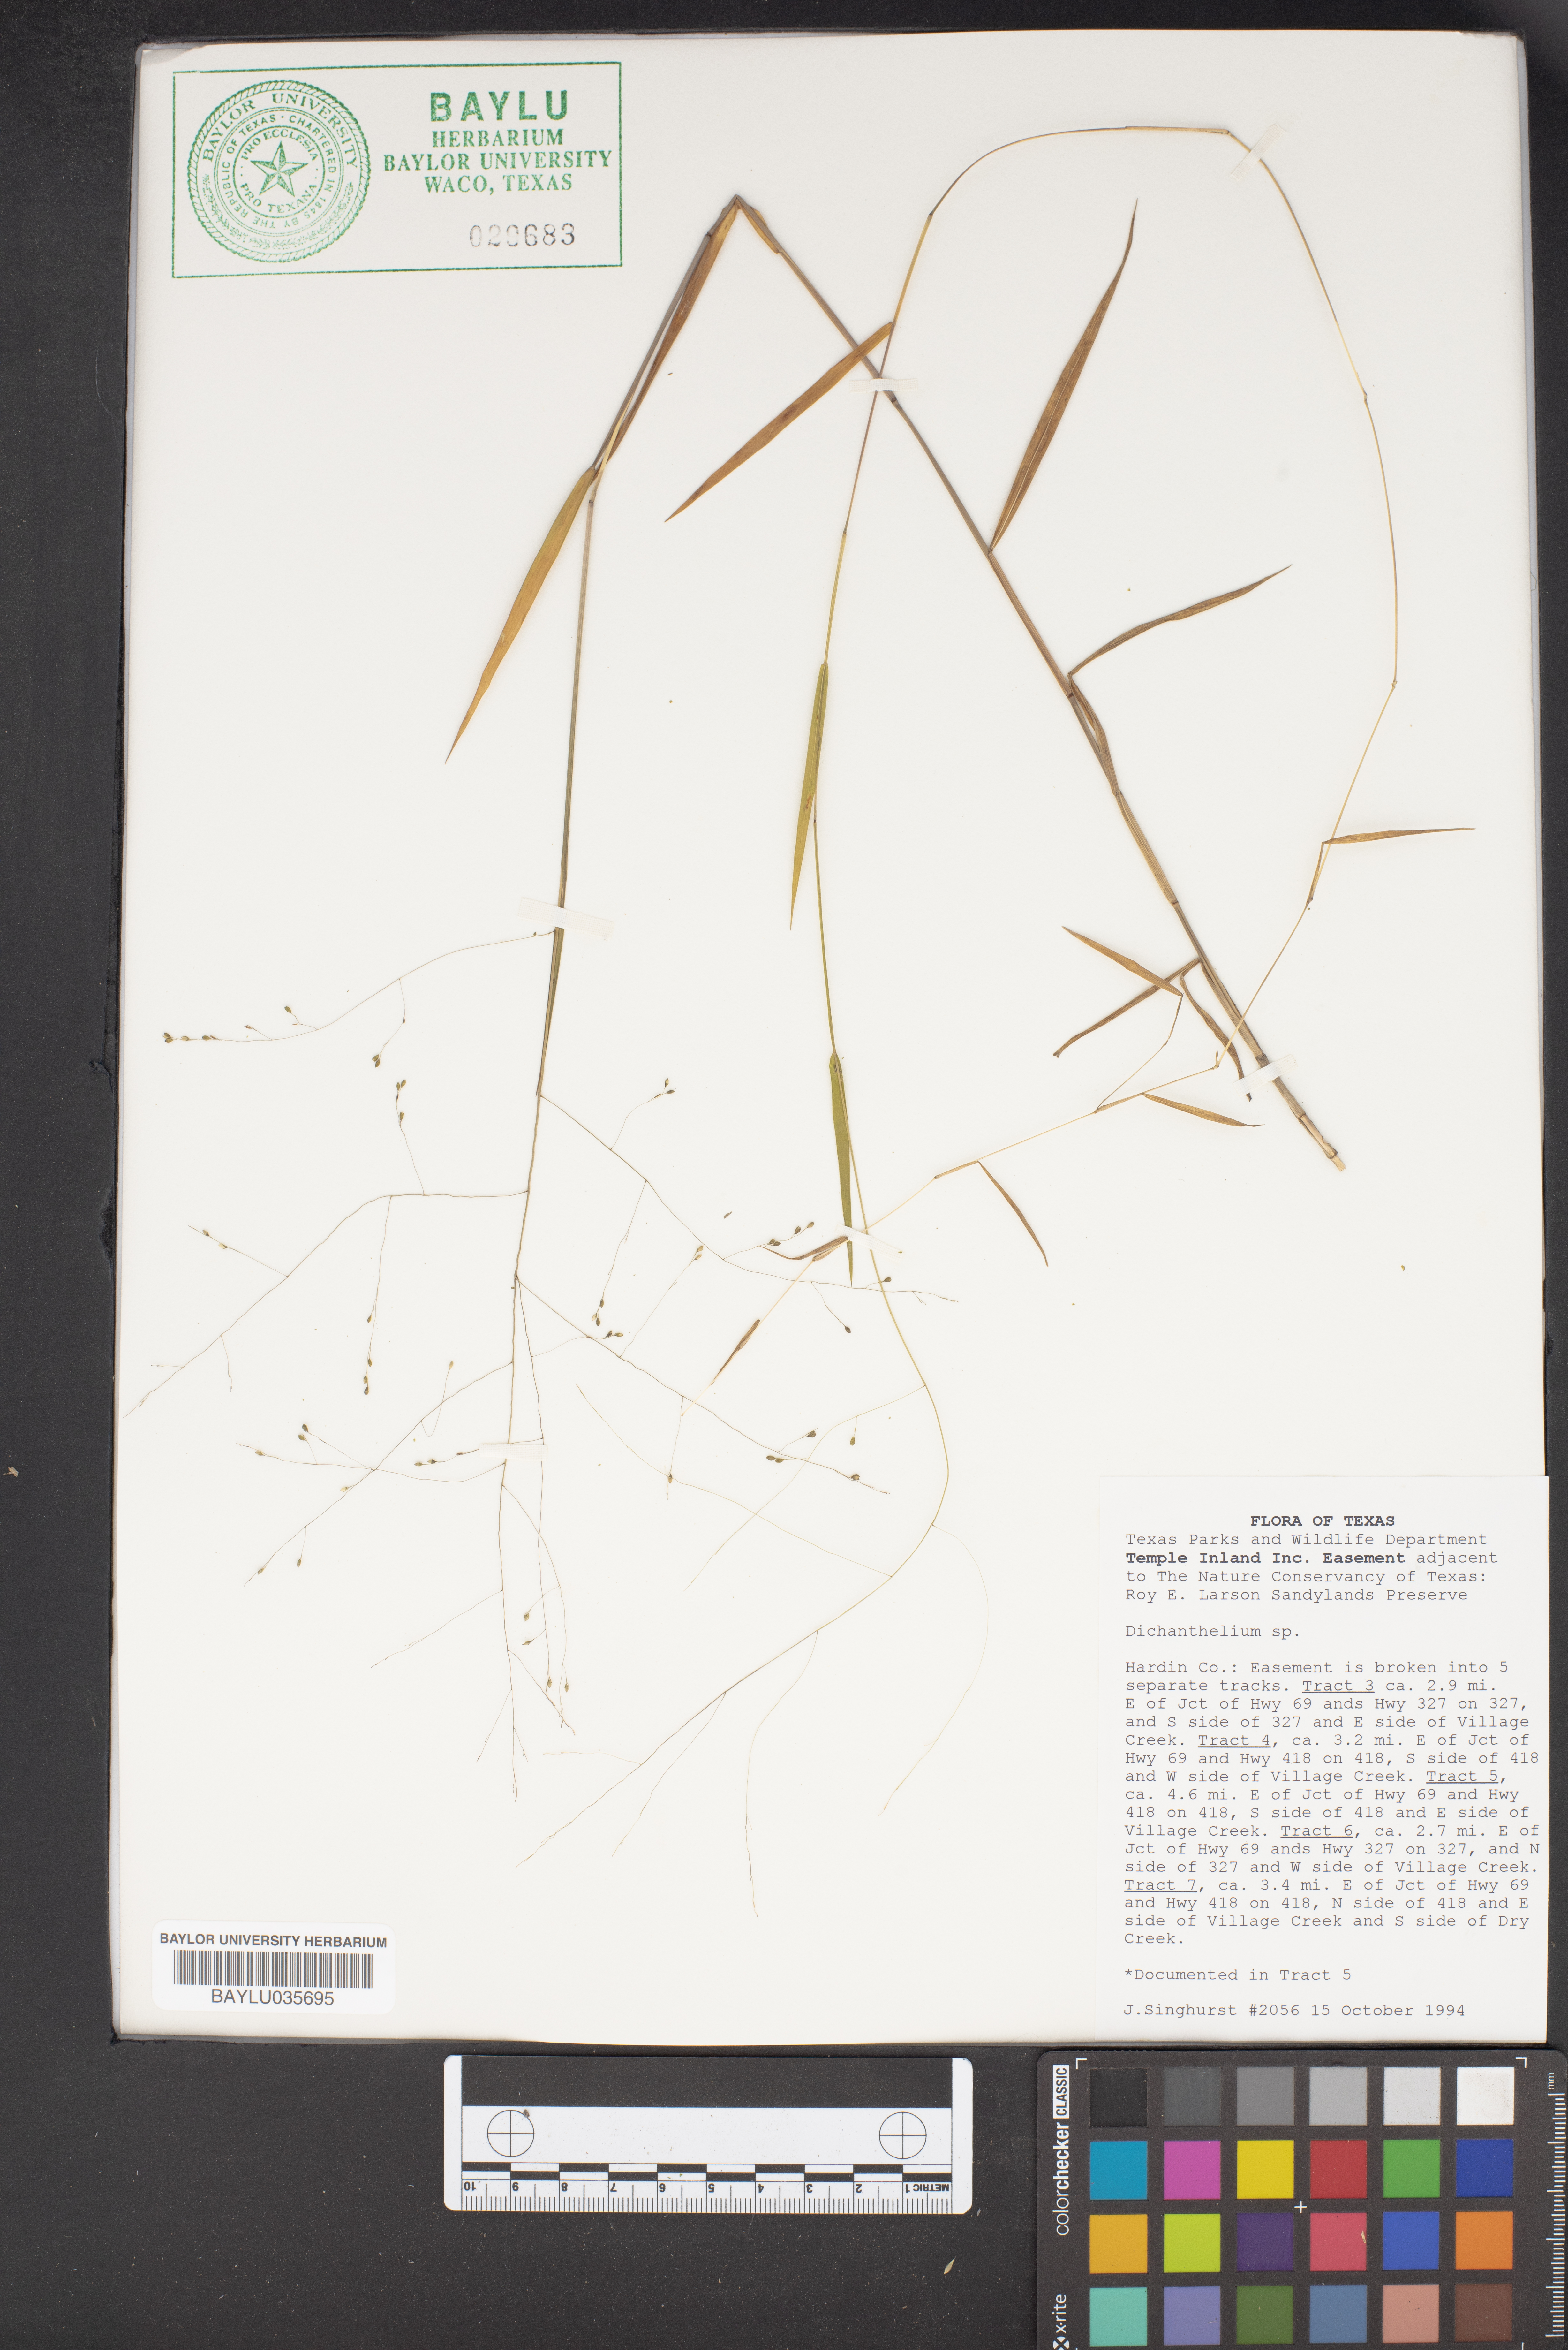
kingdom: Plantae
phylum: Tracheophyta
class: Liliopsida
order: Poales
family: Poaceae
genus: Dichanthelium
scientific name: Dichanthelium
